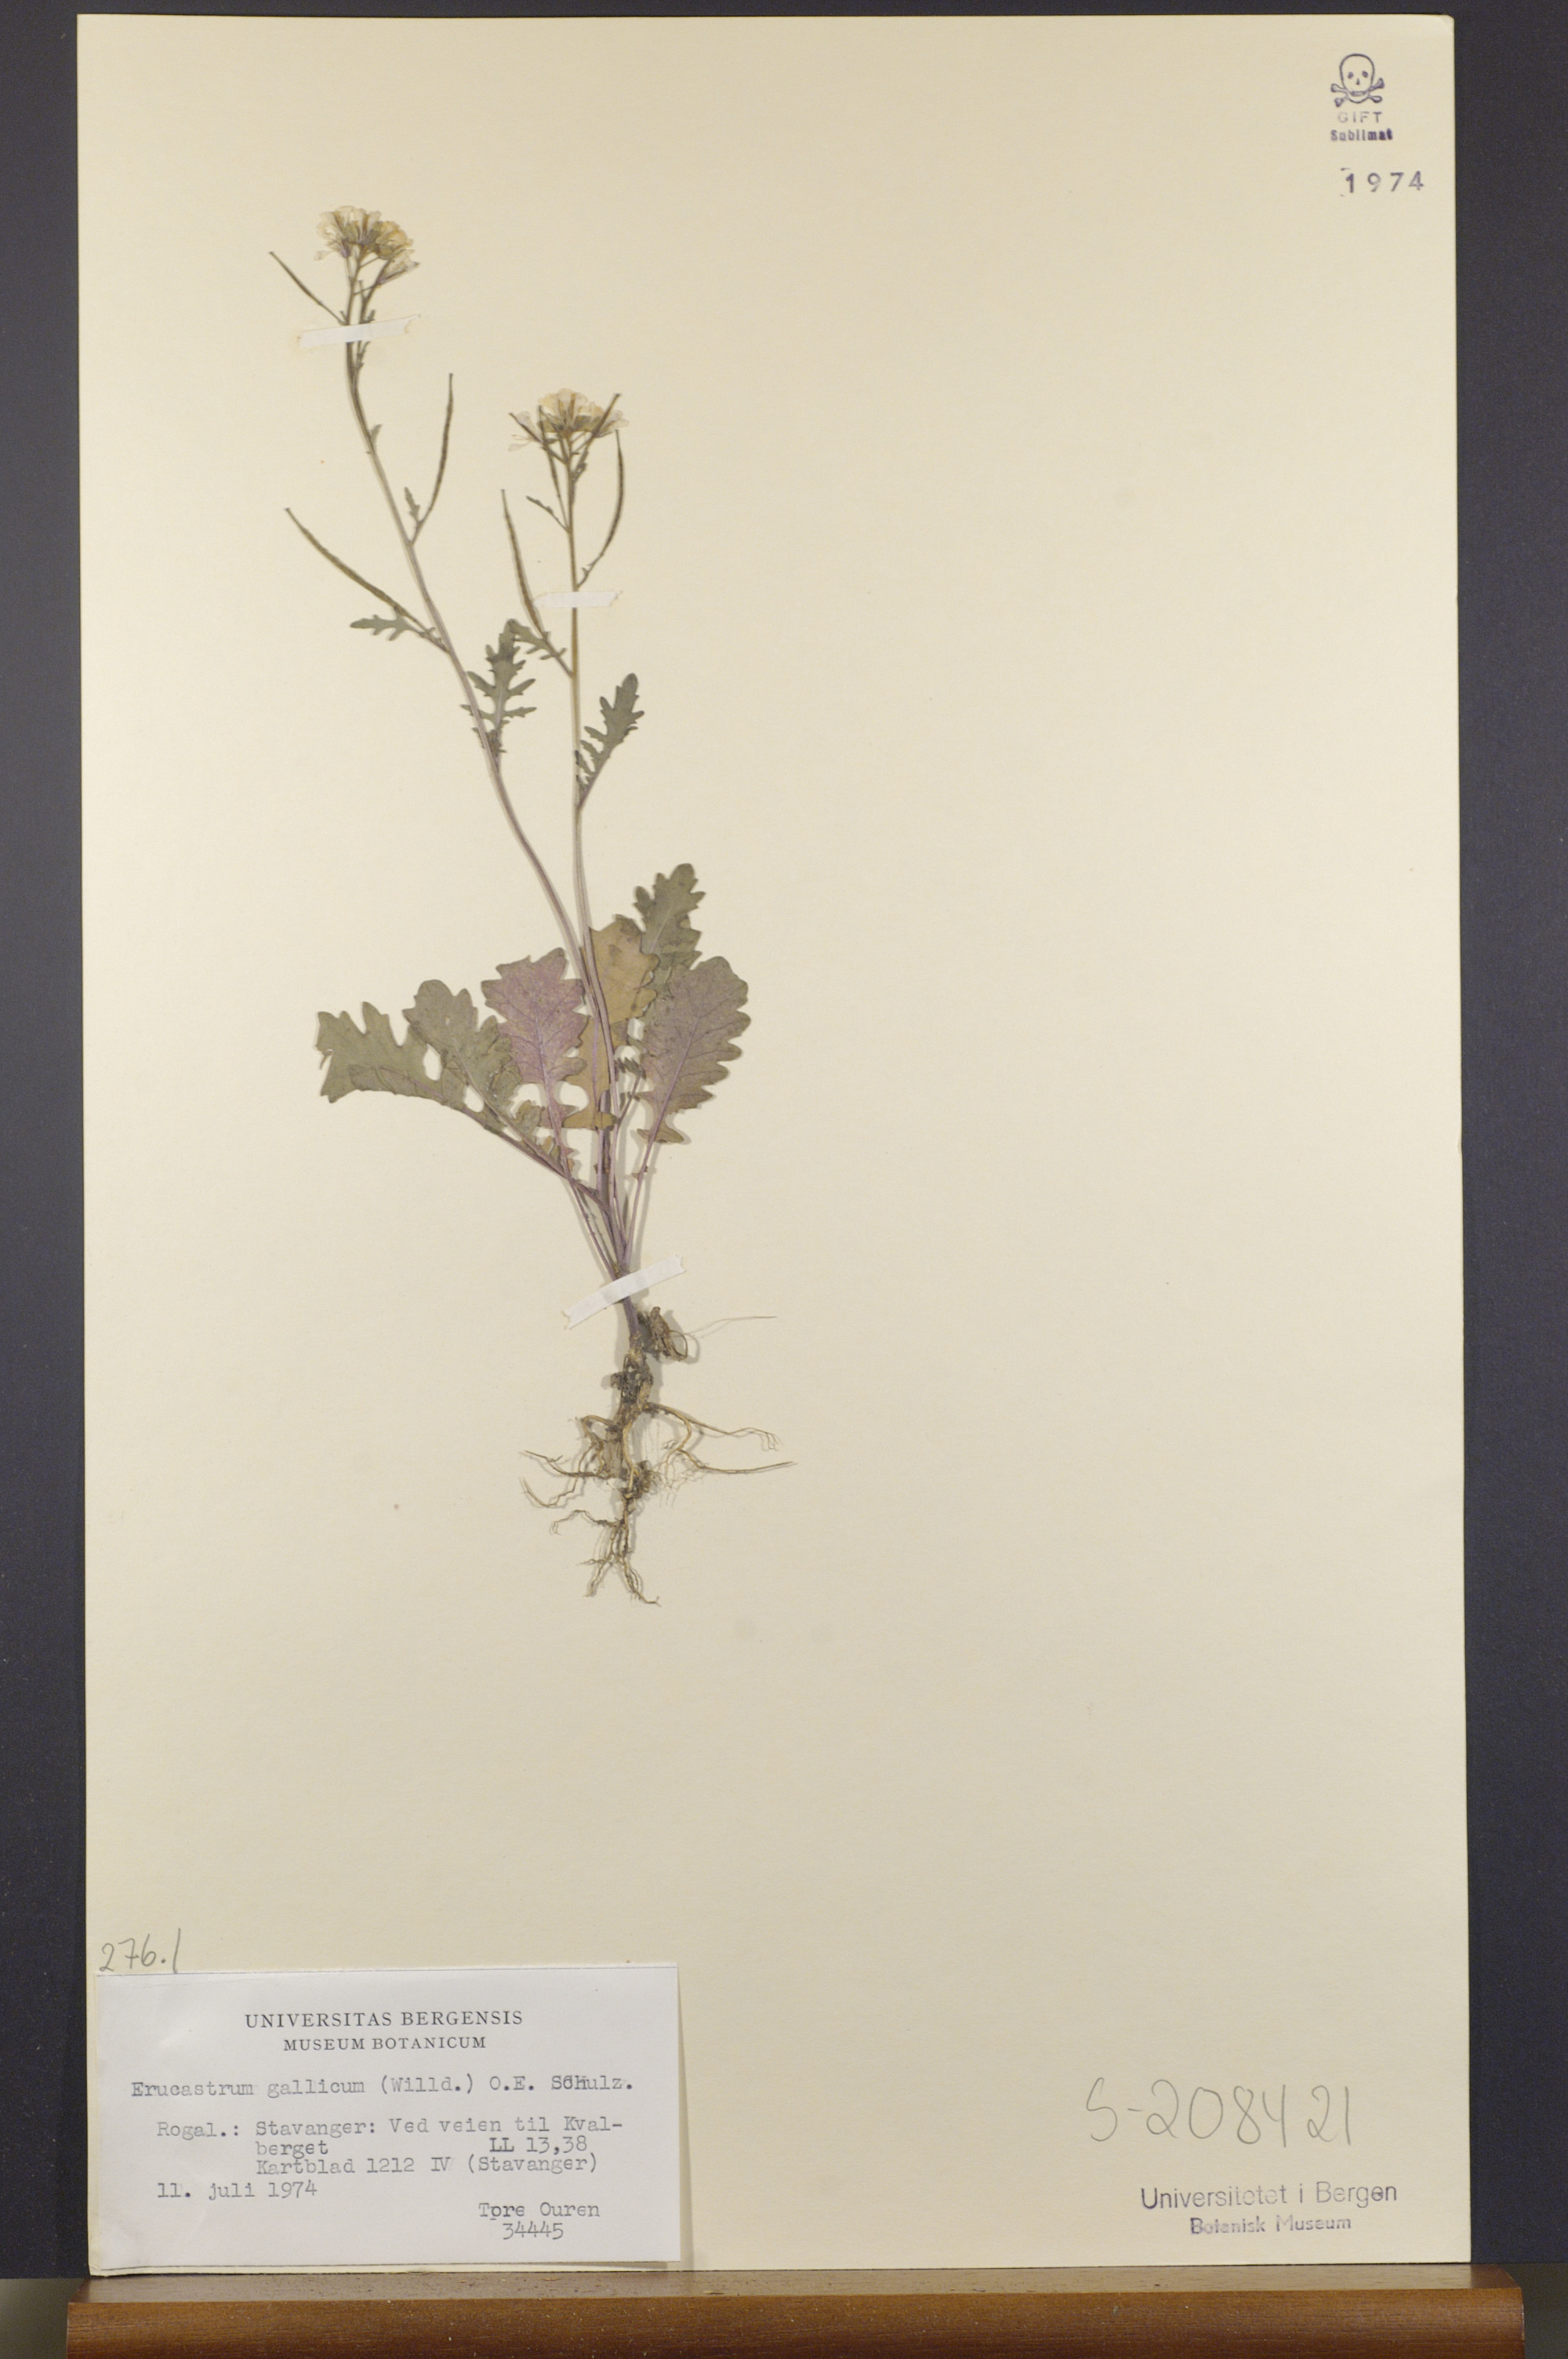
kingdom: Plantae
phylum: Tracheophyta
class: Magnoliopsida
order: Brassicales
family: Brassicaceae
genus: Erucastrum
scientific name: Erucastrum gallicum
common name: Hairy rocket
